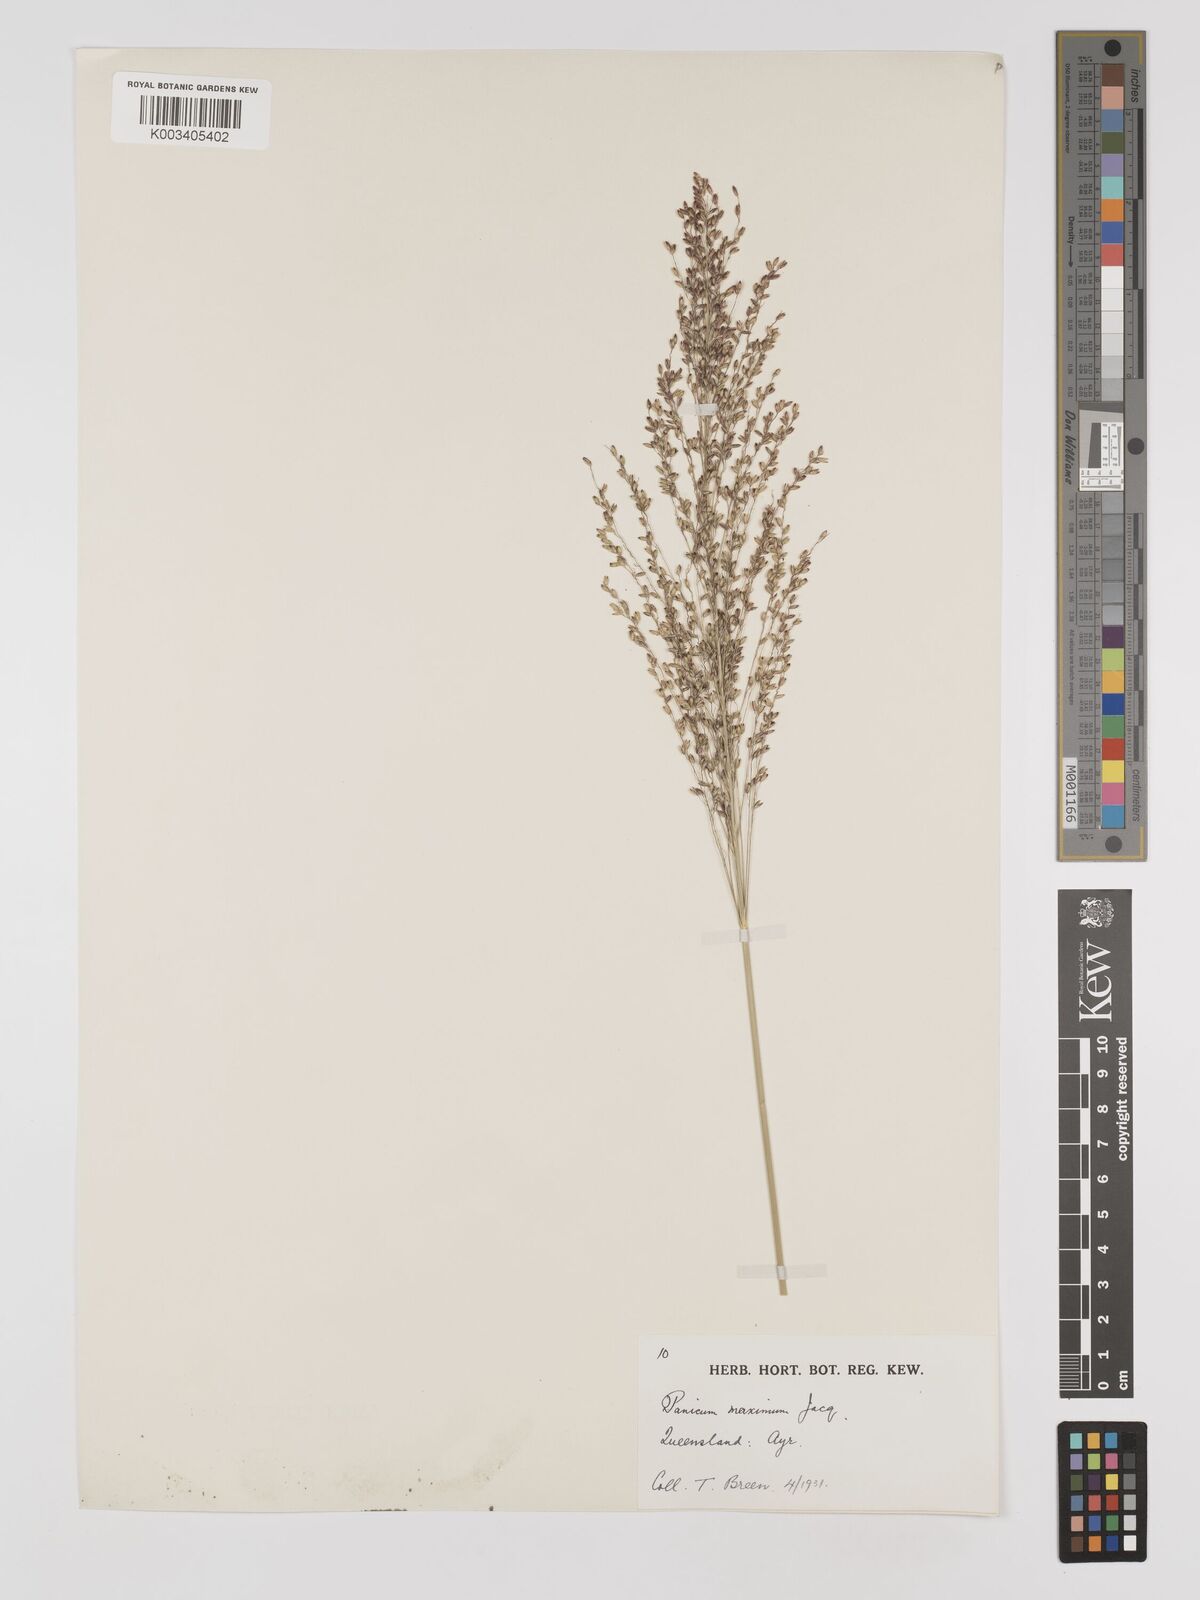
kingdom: Plantae
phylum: Tracheophyta
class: Liliopsida
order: Poales
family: Poaceae
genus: Megathyrsus
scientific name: Megathyrsus maximus
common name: Guineagrass
